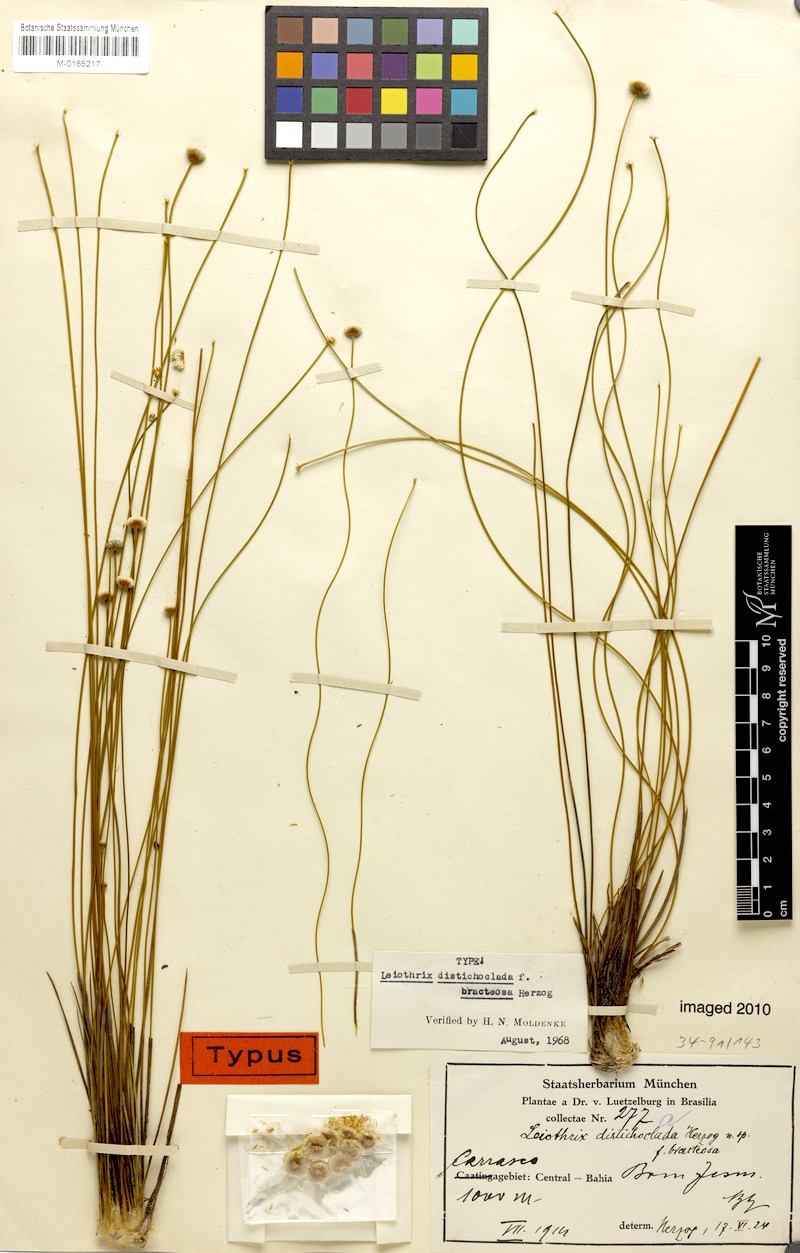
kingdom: Plantae
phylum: Tracheophyta
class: Liliopsida
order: Poales
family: Eriocaulaceae
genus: Leiothrix
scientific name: Leiothrix distichoclada
